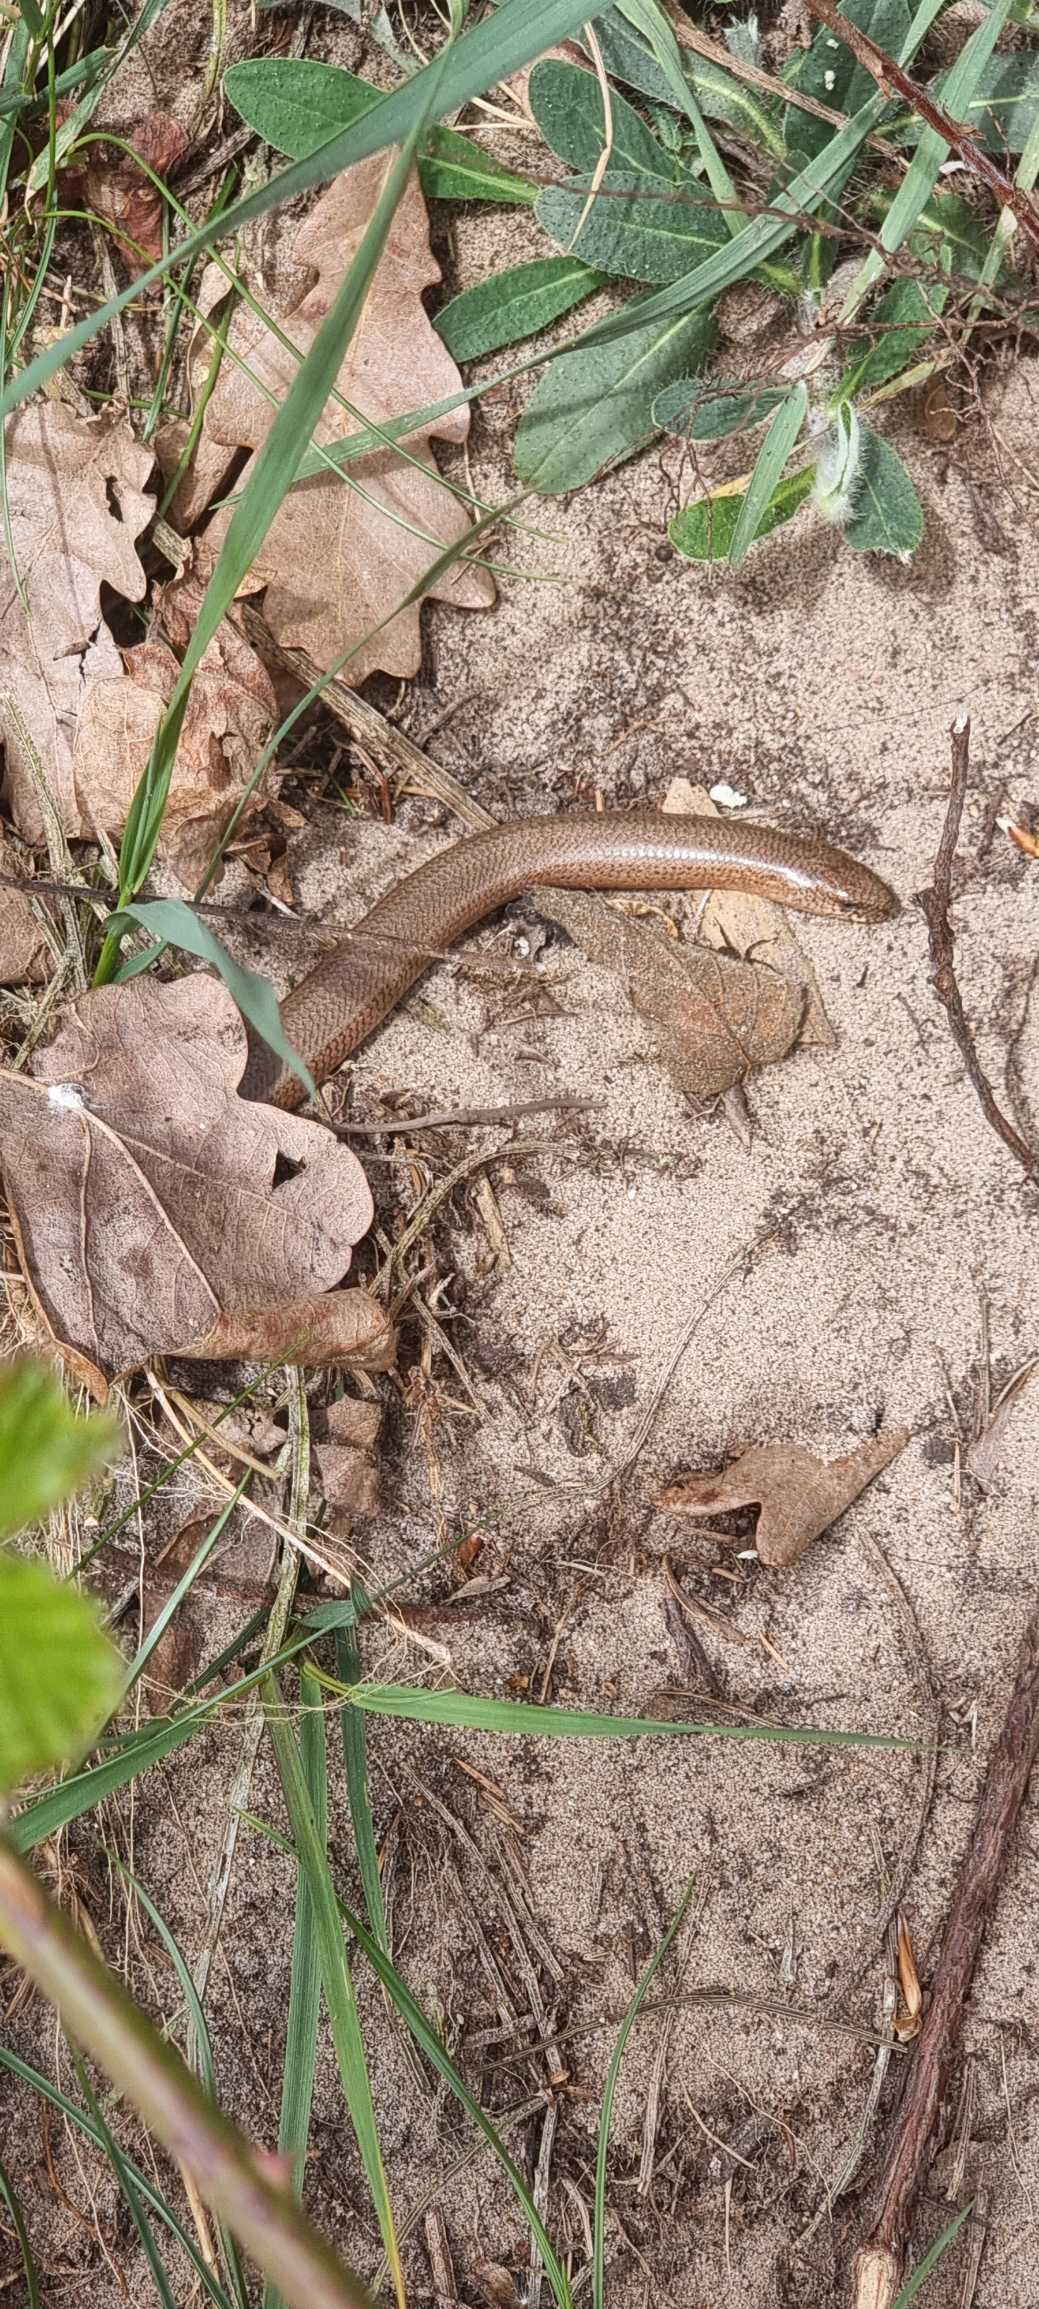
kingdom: Animalia
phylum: Chordata
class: Squamata
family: Anguidae
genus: Anguis
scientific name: Anguis fragilis
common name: Stålorm
